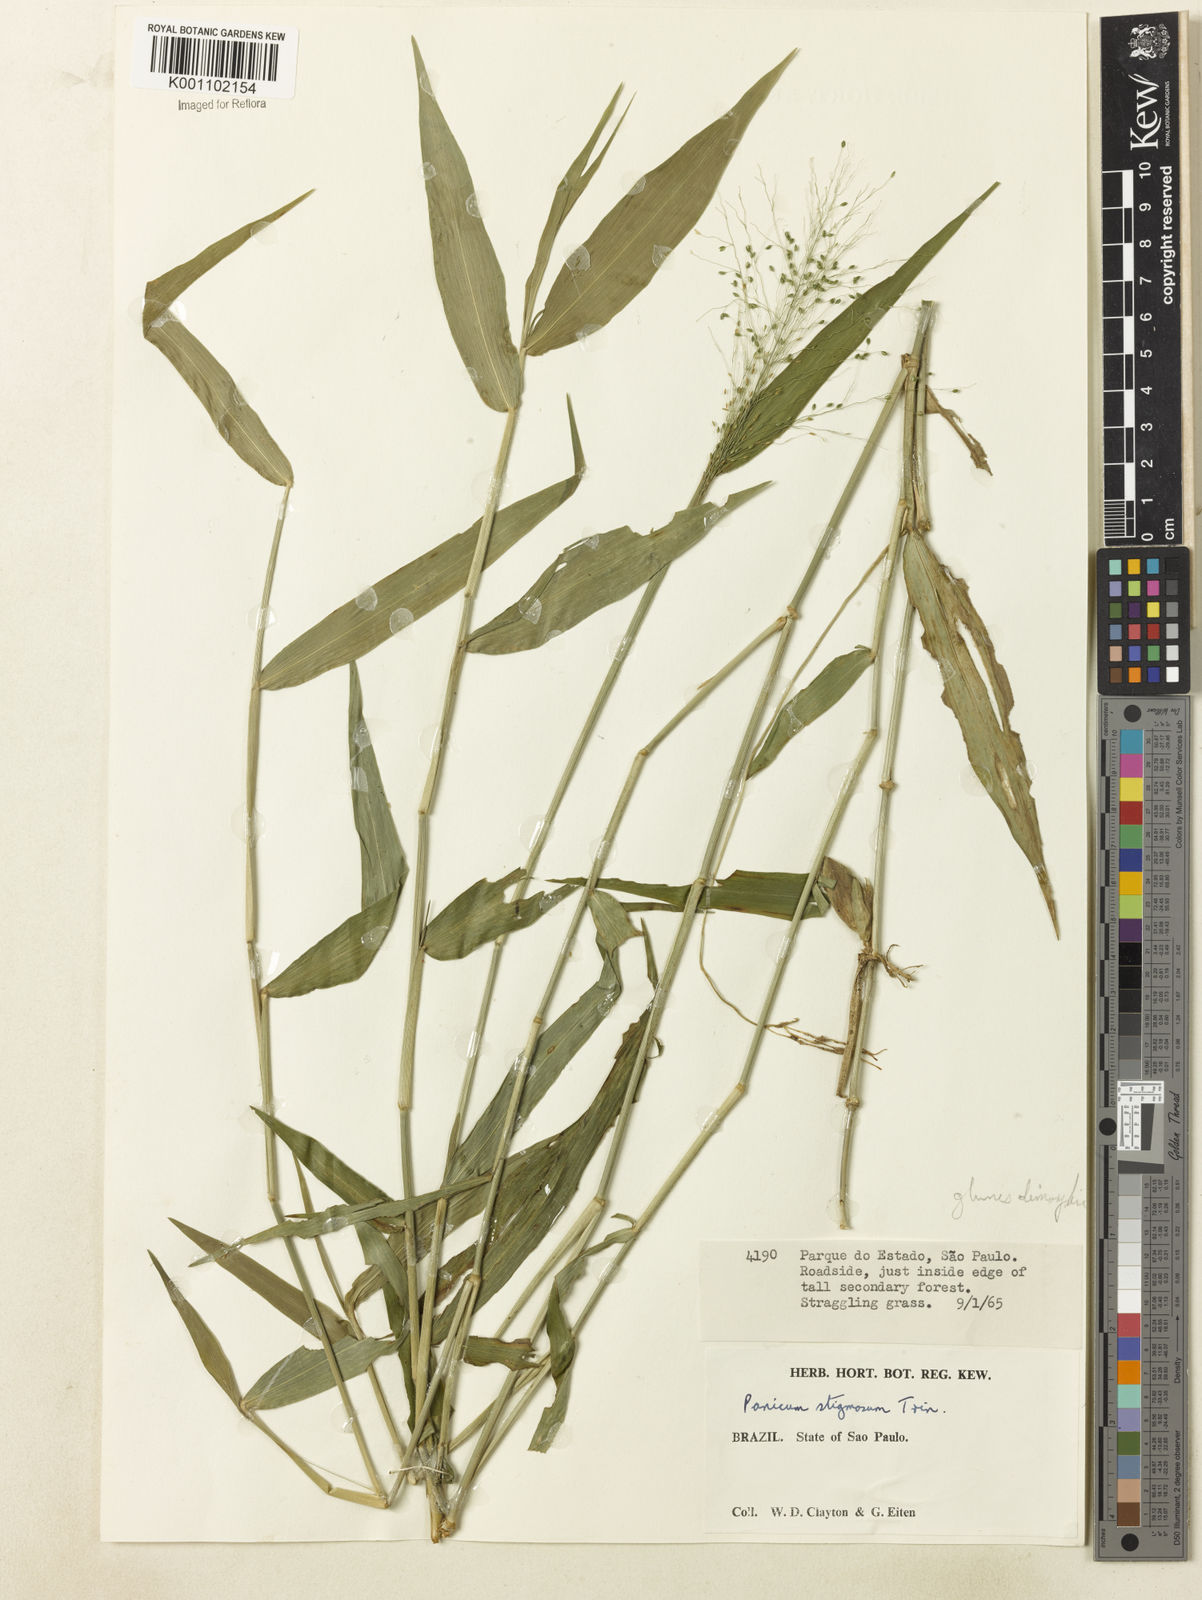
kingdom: Plantae
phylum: Tracheophyta
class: Liliopsida
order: Poales
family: Poaceae
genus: Dichanthelium
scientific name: Dichanthelium hebotes
